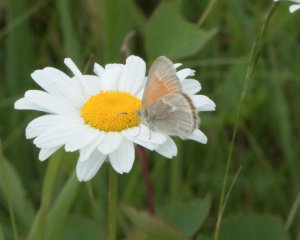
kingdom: Animalia
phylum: Arthropoda
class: Insecta
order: Lepidoptera
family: Nymphalidae
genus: Coenonympha
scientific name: Coenonympha tullia
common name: Large Heath
